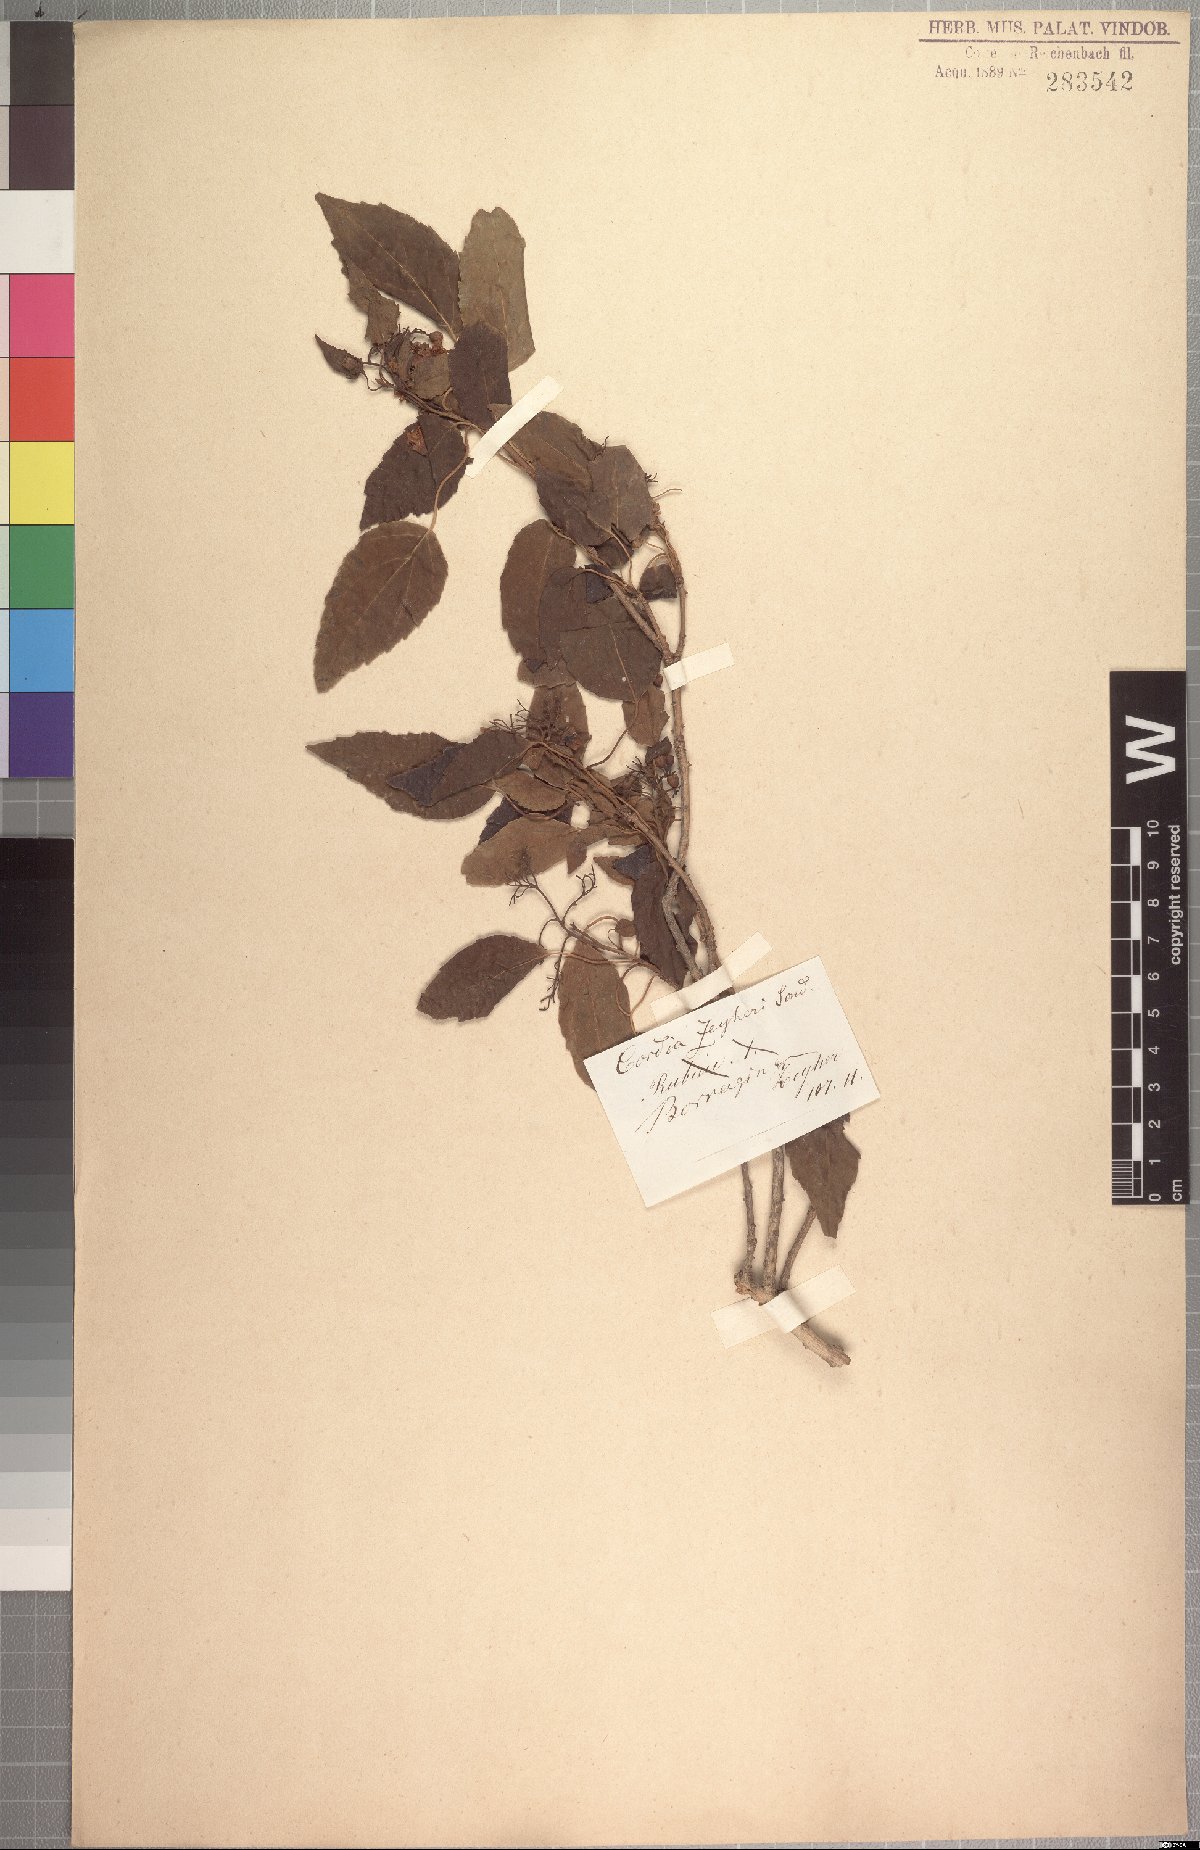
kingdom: Plantae
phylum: Tracheophyta
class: Magnoliopsida
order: Boraginales
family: Cordiaceae
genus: Cordia
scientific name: Cordia caffra
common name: Septee tree
